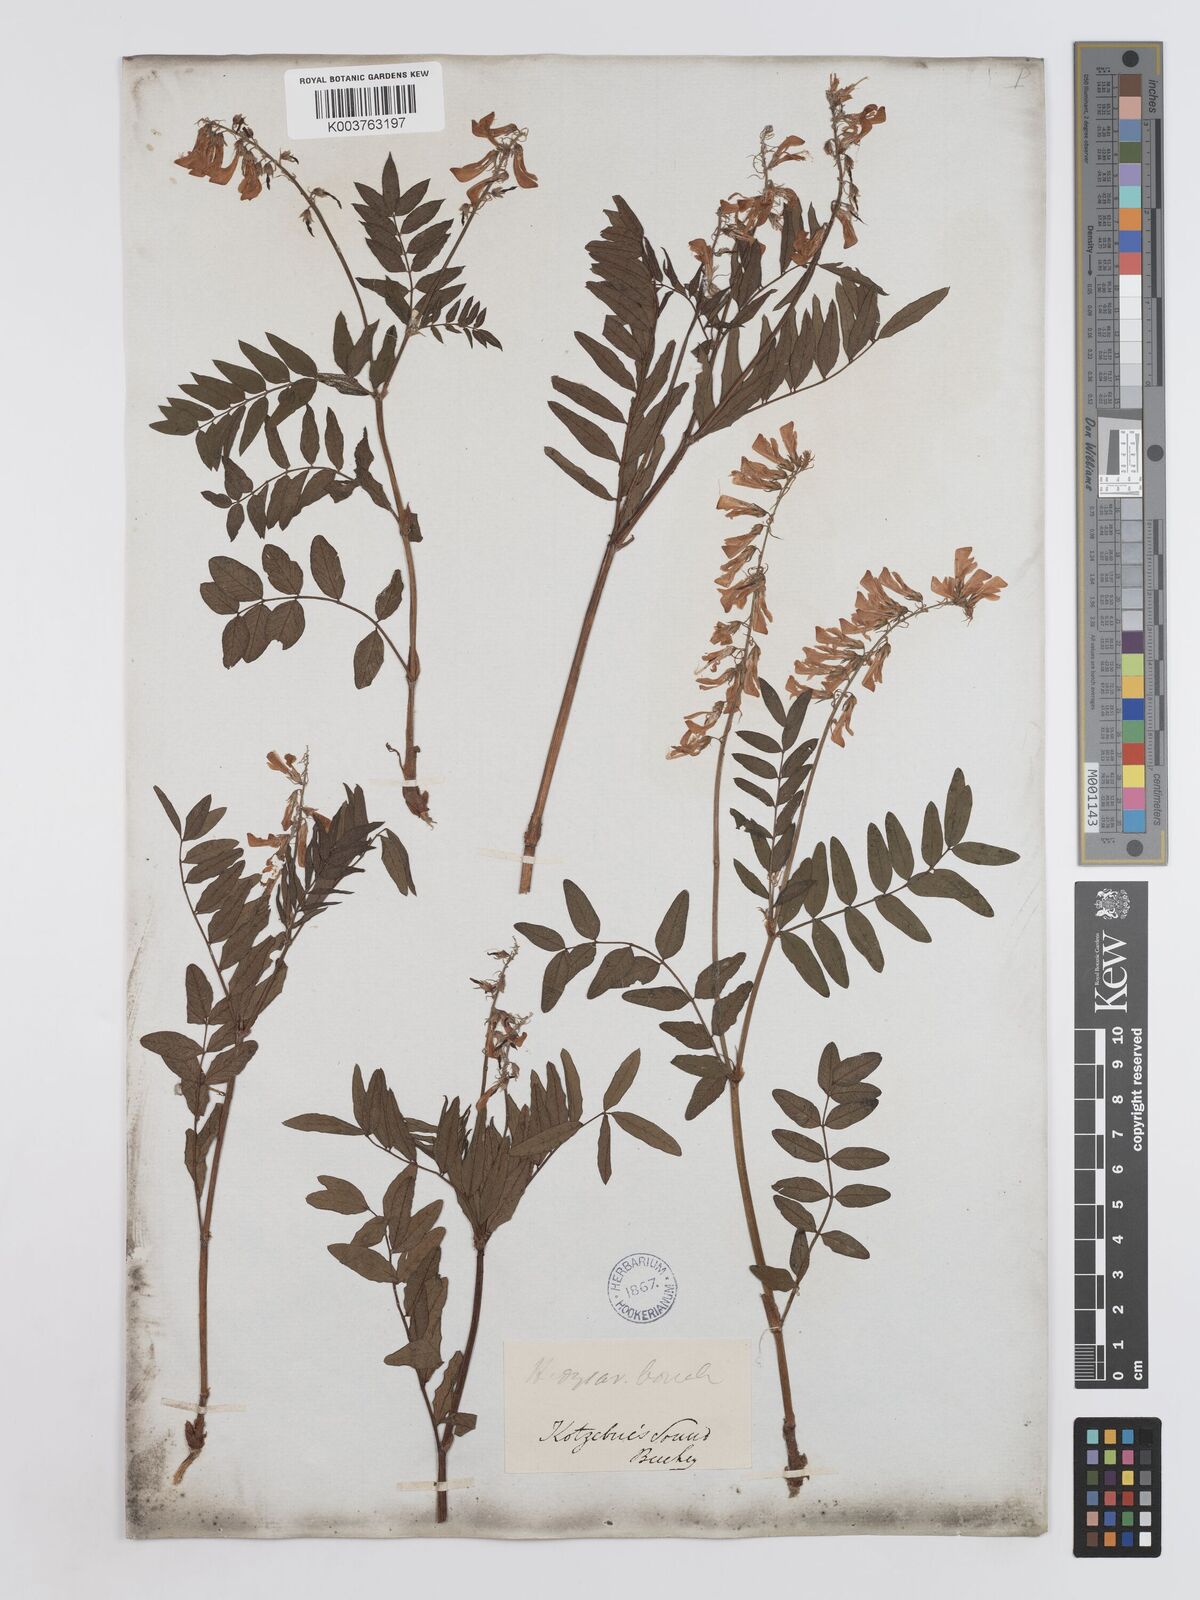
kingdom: Plantae
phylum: Tracheophyta
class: Magnoliopsida
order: Fabales
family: Fabaceae
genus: Hedysarum
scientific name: Hedysarum boreale
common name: Northern sweet-vetch
